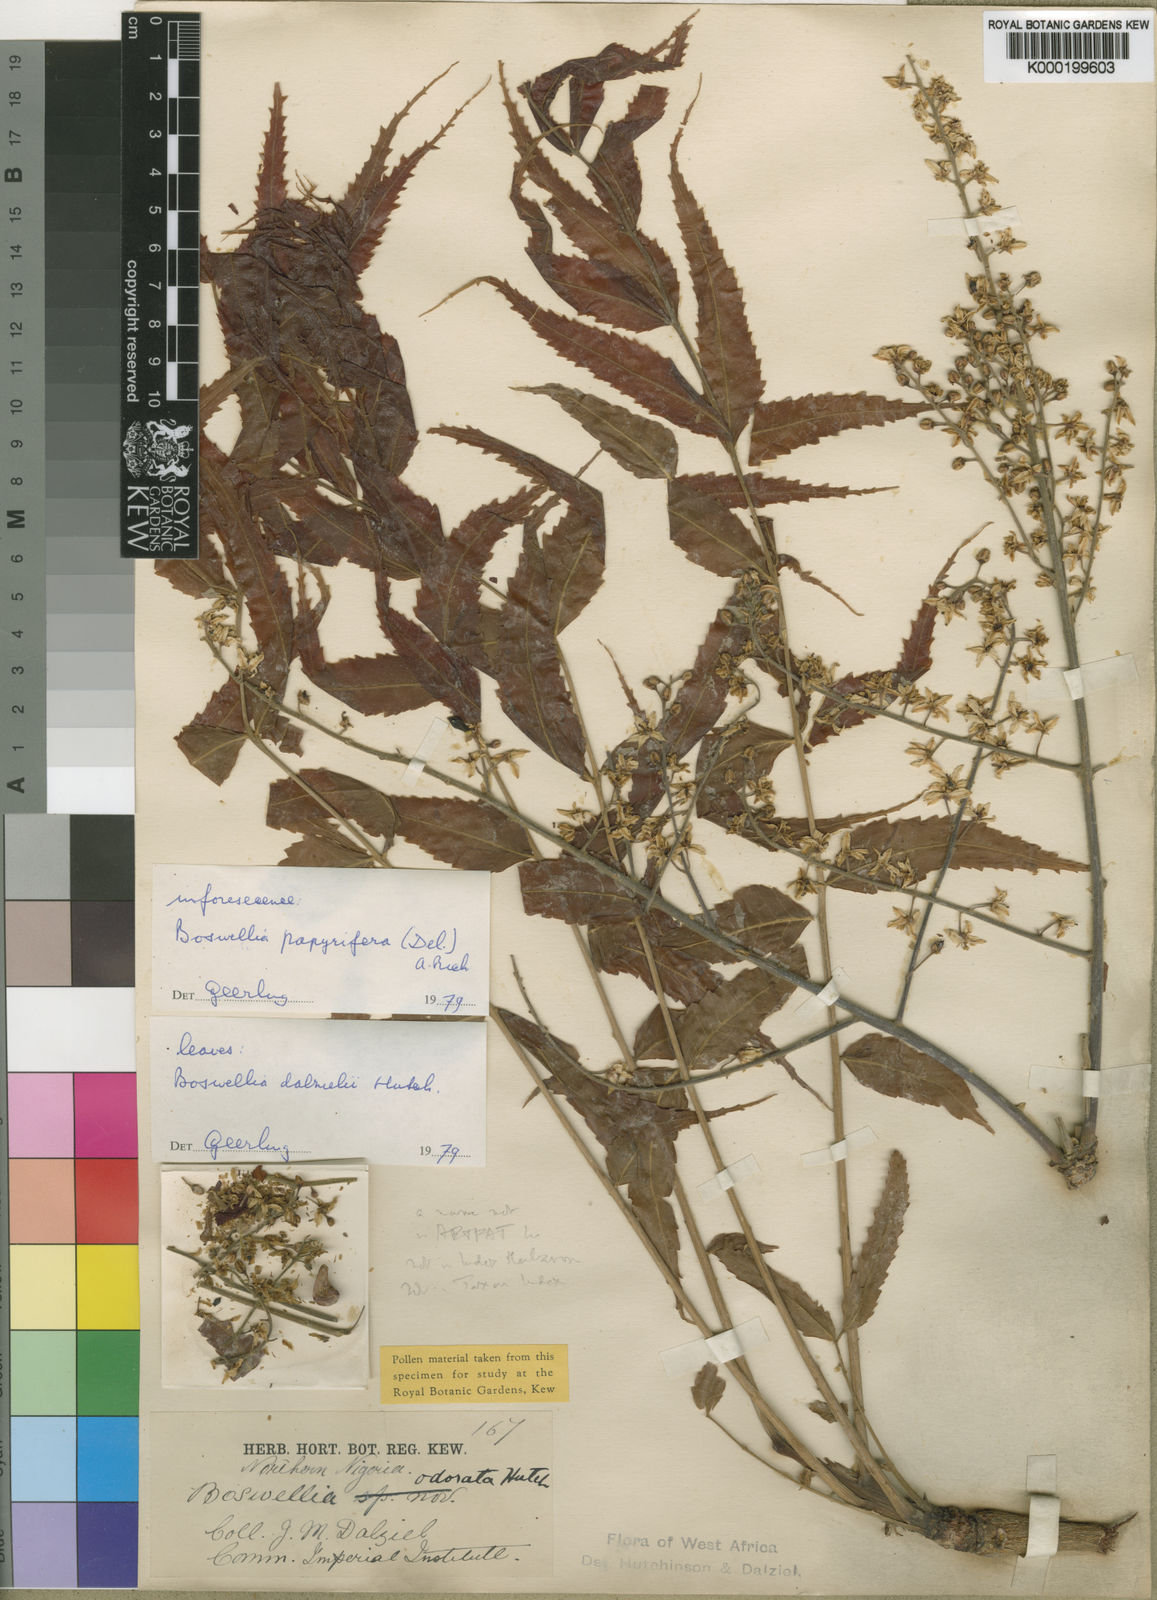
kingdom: Plantae
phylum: Tracheophyta
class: Magnoliopsida
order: Sapindales
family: Burseraceae
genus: Boswellia
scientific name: Boswellia dalzielii
